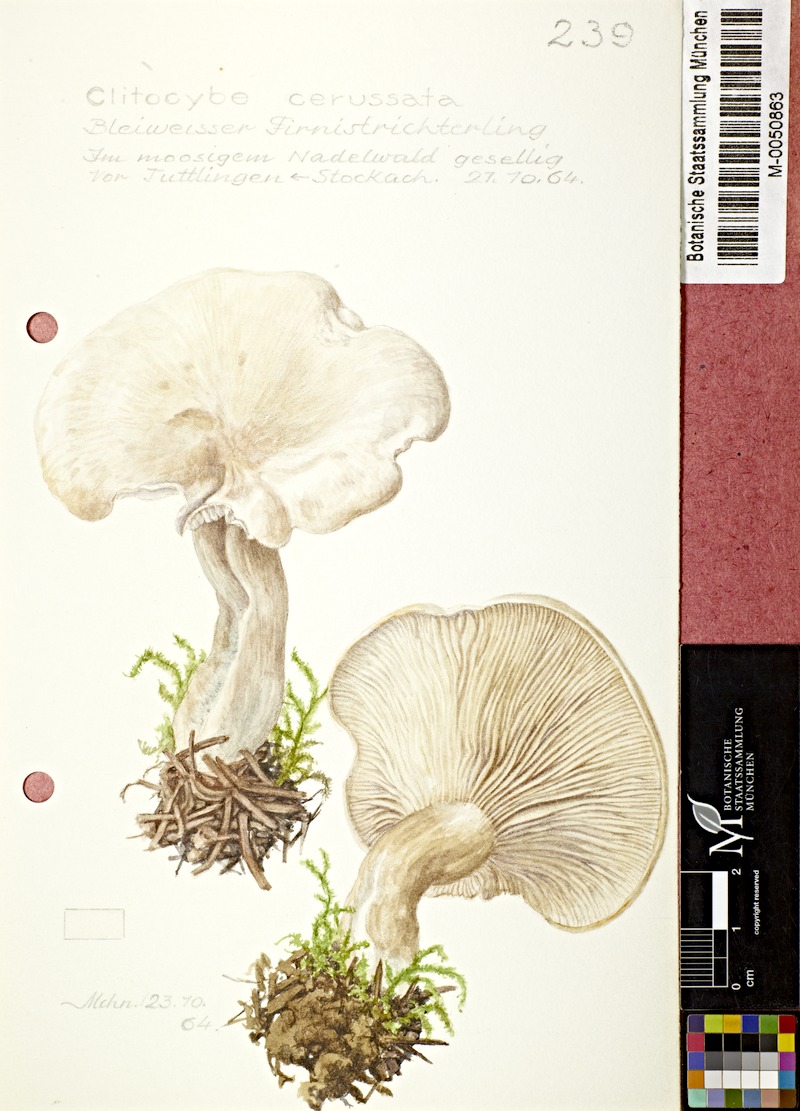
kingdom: Fungi
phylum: Basidiomycota
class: Agaricomycetes
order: Agaricales
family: Tricholomataceae
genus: Clitocybe
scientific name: Clitocybe phyllophila
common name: Frosty funnel
